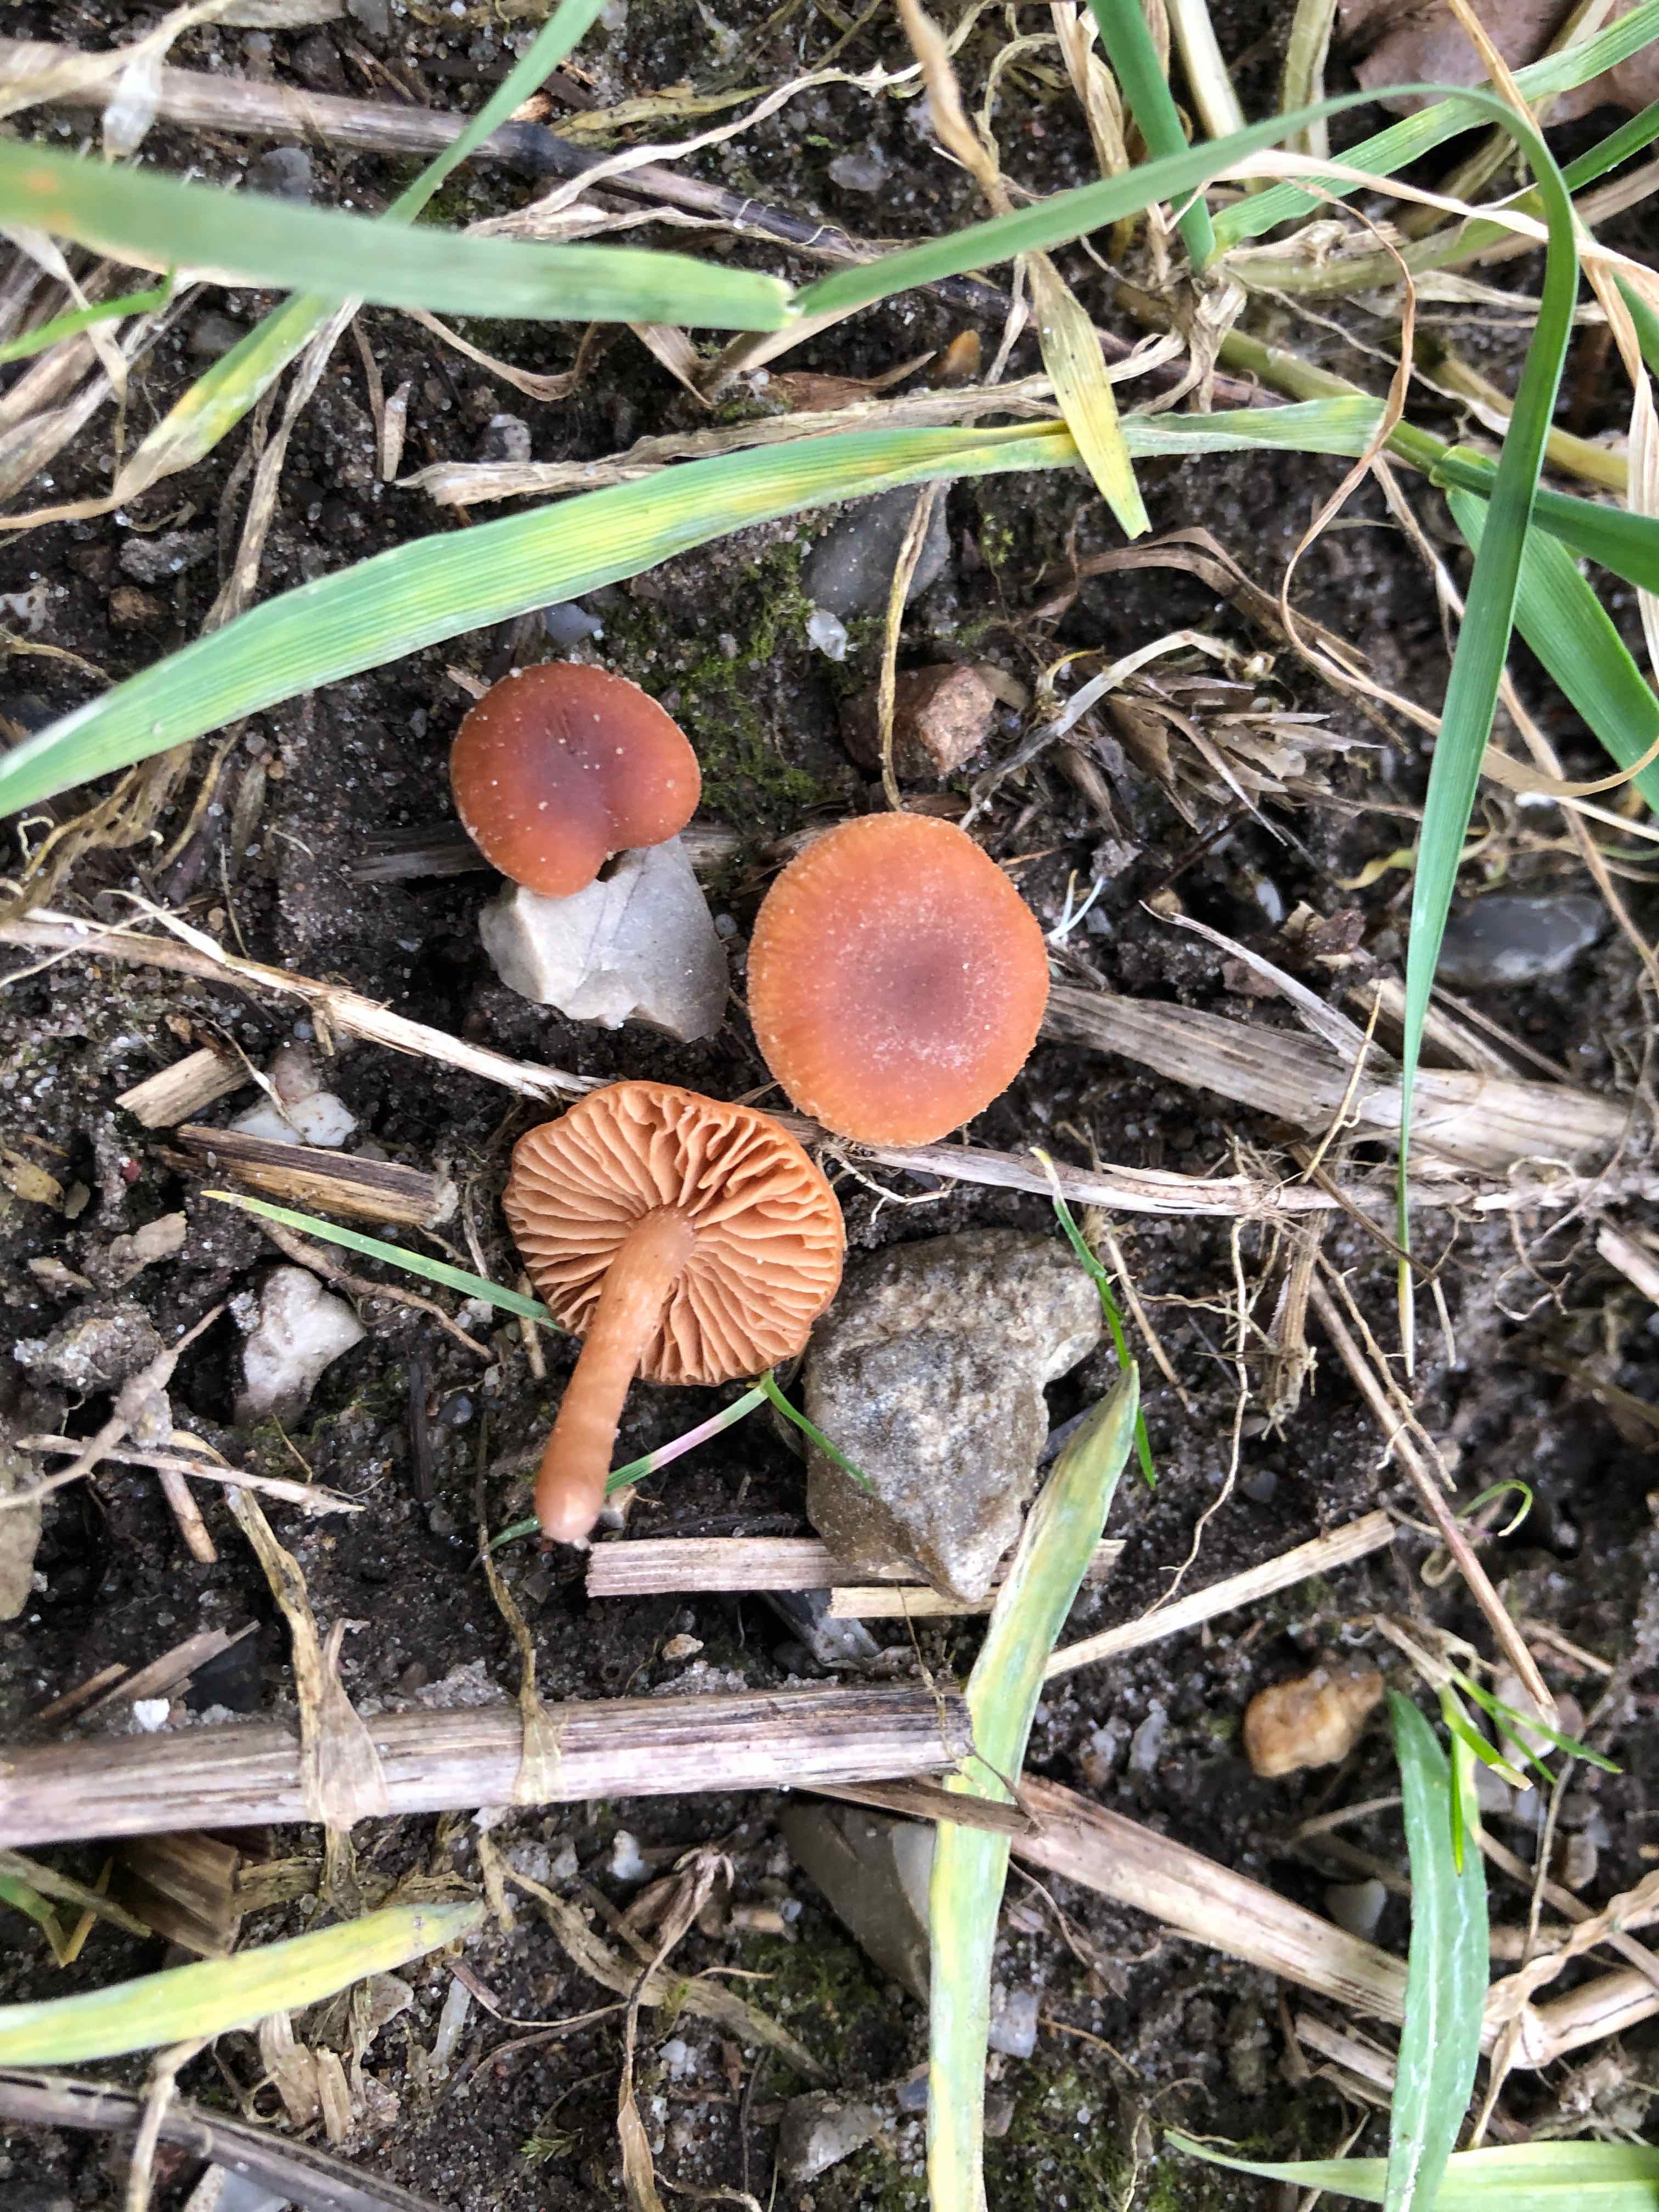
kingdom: Fungi
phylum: Basidiomycota
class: Agaricomycetes
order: Agaricales
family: Tubariaceae
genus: Tubaria
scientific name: Tubaria furfuracea
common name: kliddet fnughat
